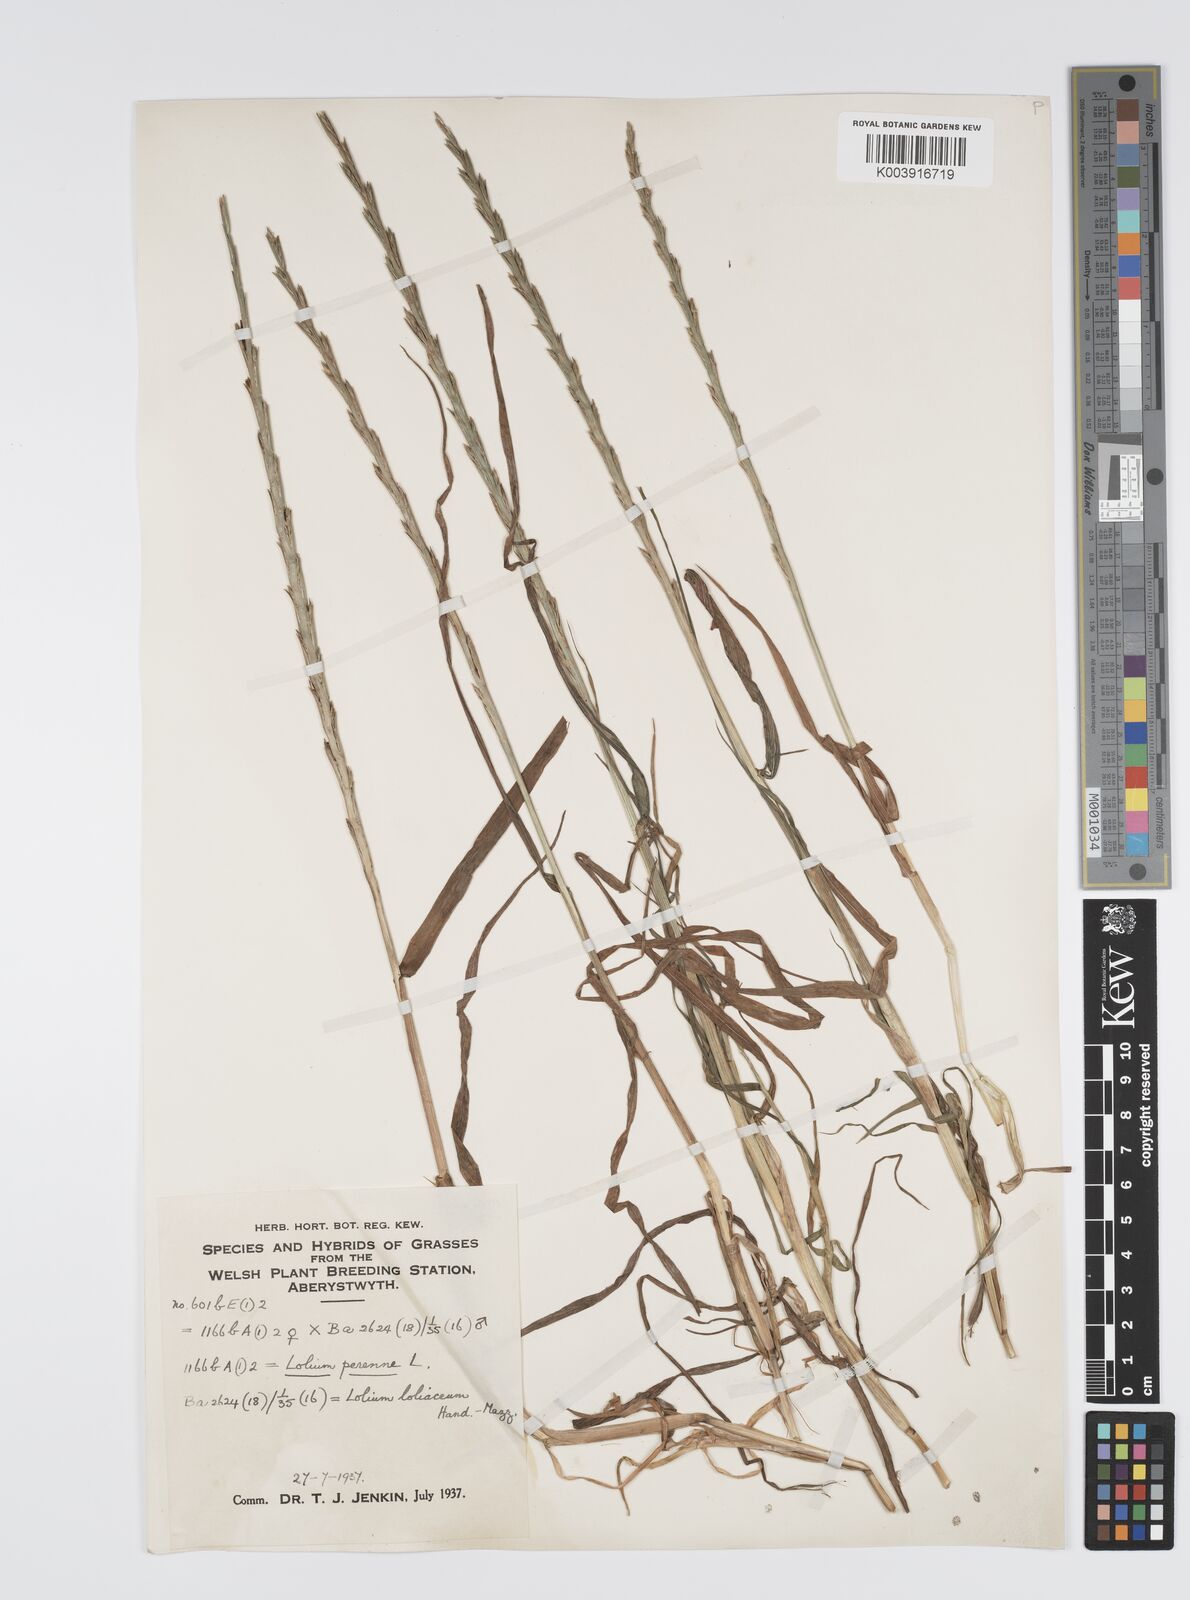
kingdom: Plantae
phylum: Tracheophyta
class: Liliopsida
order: Poales
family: Poaceae
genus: Lolium
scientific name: Lolium perenne
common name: Perennial ryegrass
